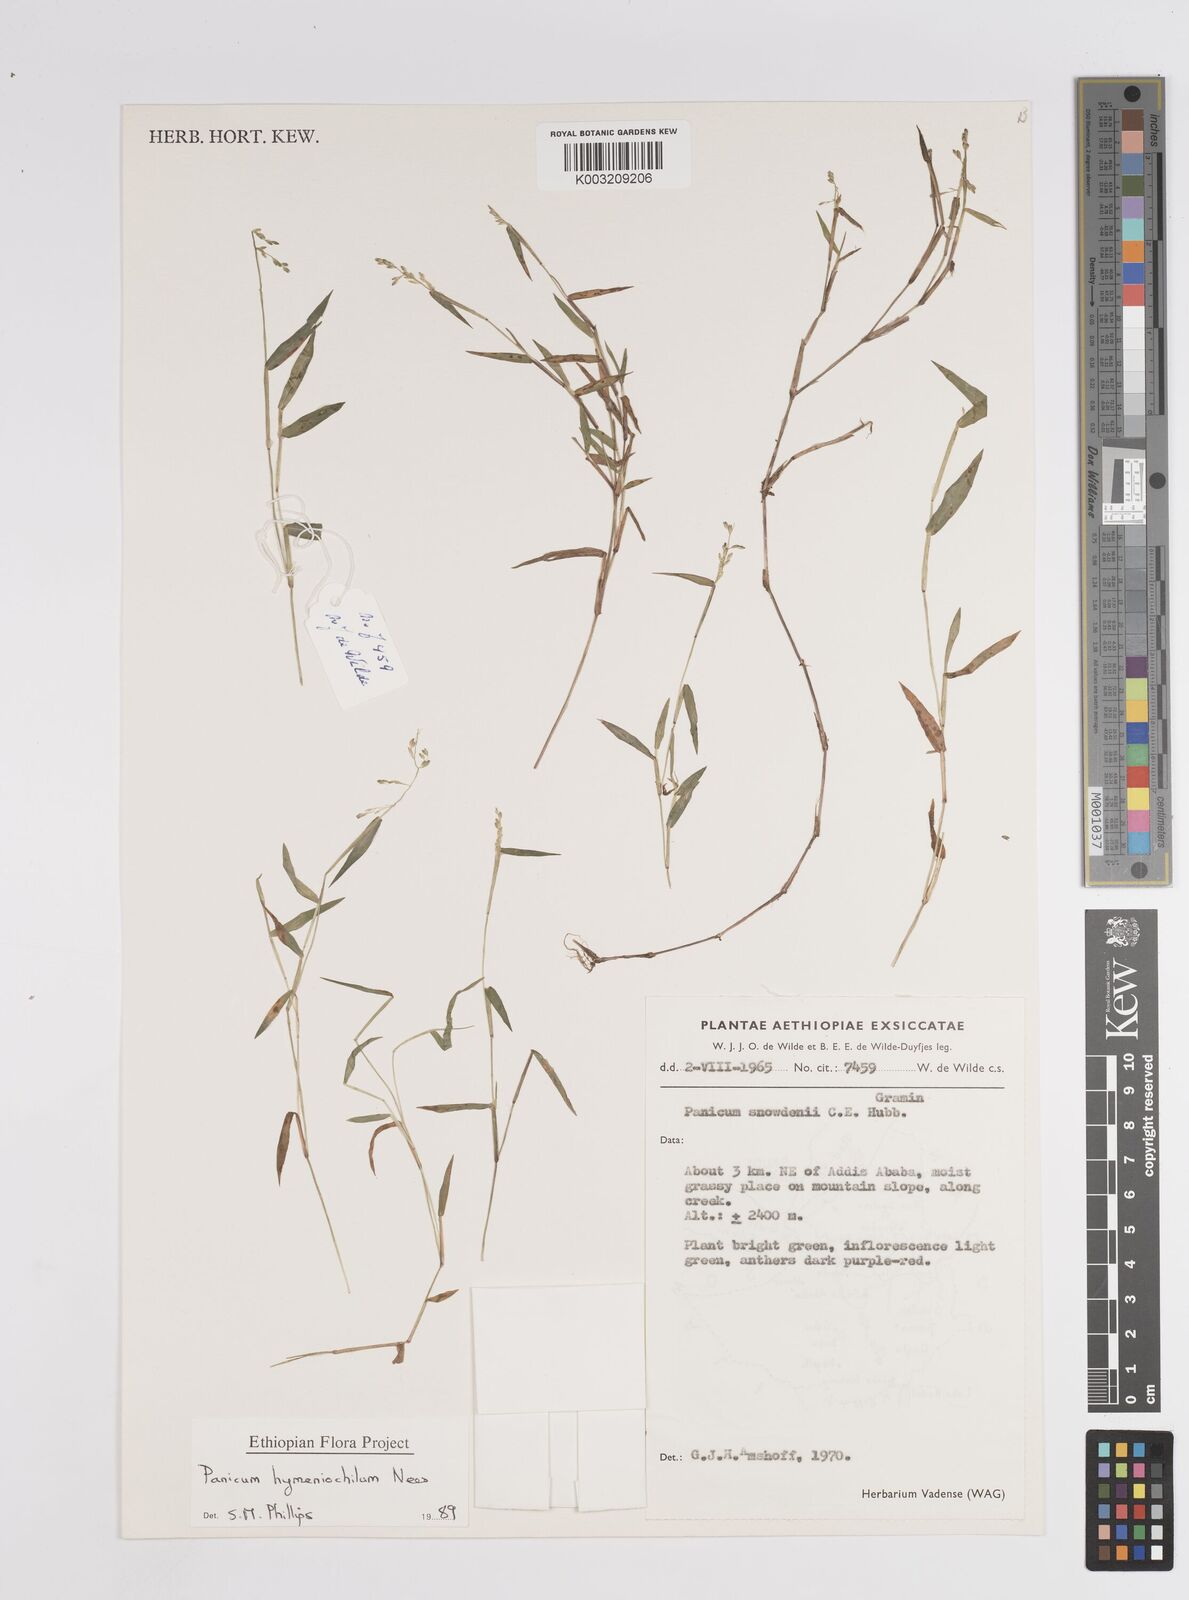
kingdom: Plantae
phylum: Tracheophyta
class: Liliopsida
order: Poales
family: Poaceae
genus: Adenochloa
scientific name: Adenochloa hymeniochila
